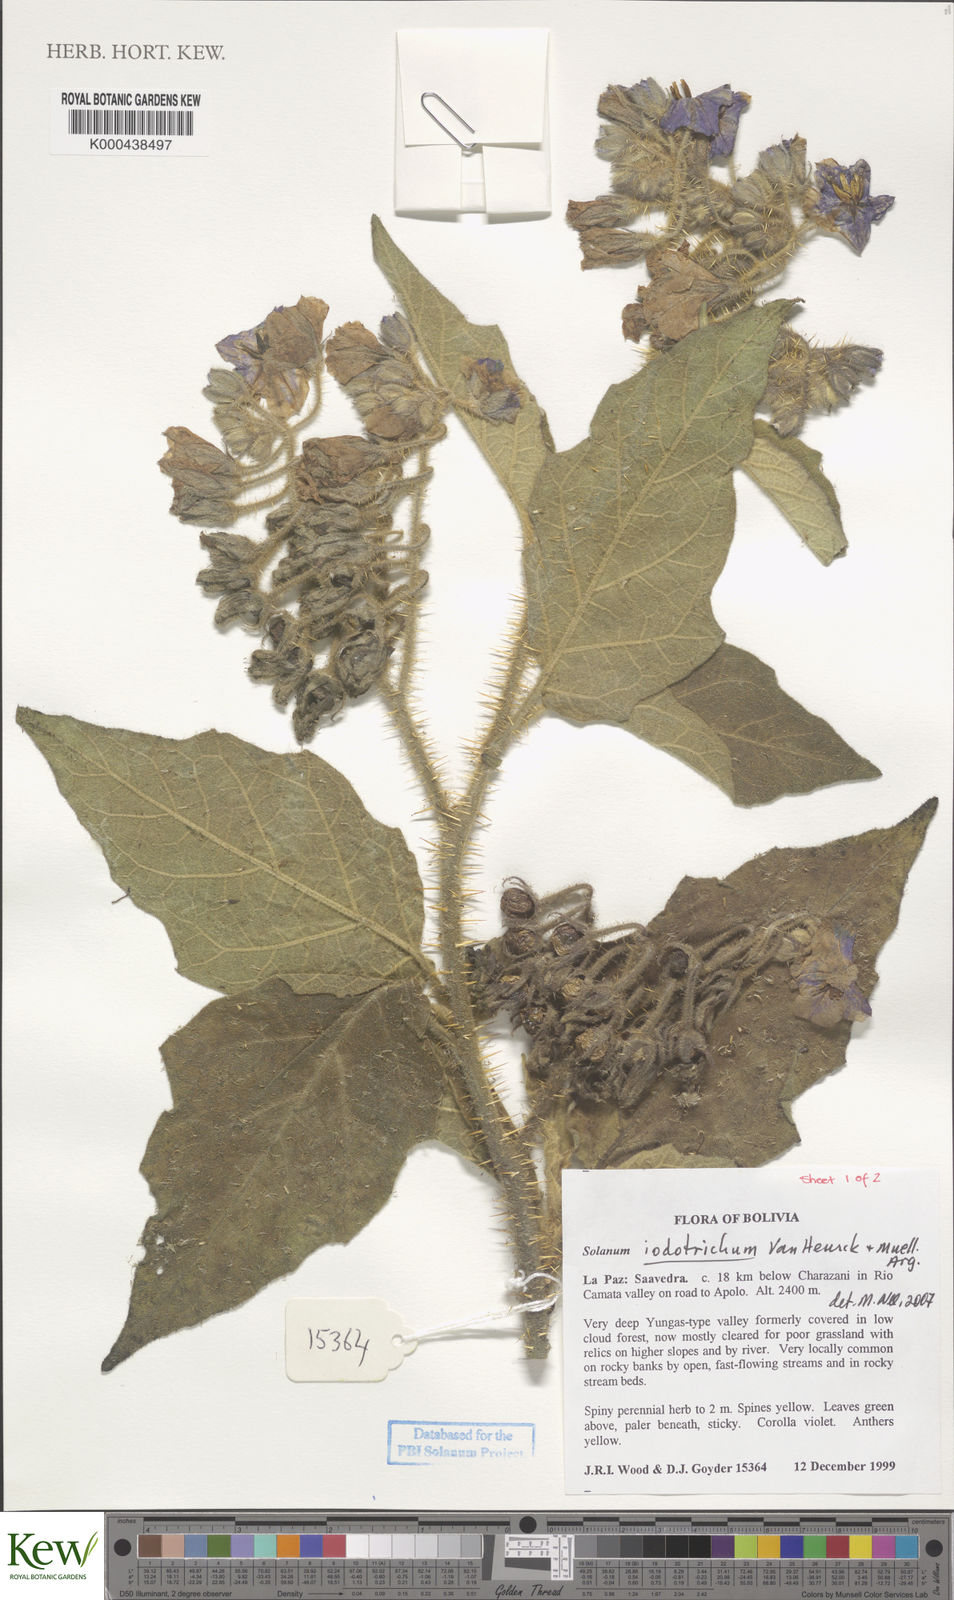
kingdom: Plantae
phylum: Tracheophyta
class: Magnoliopsida
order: Solanales
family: Solanaceae
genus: Solanum
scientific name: Solanum iodotrichum
